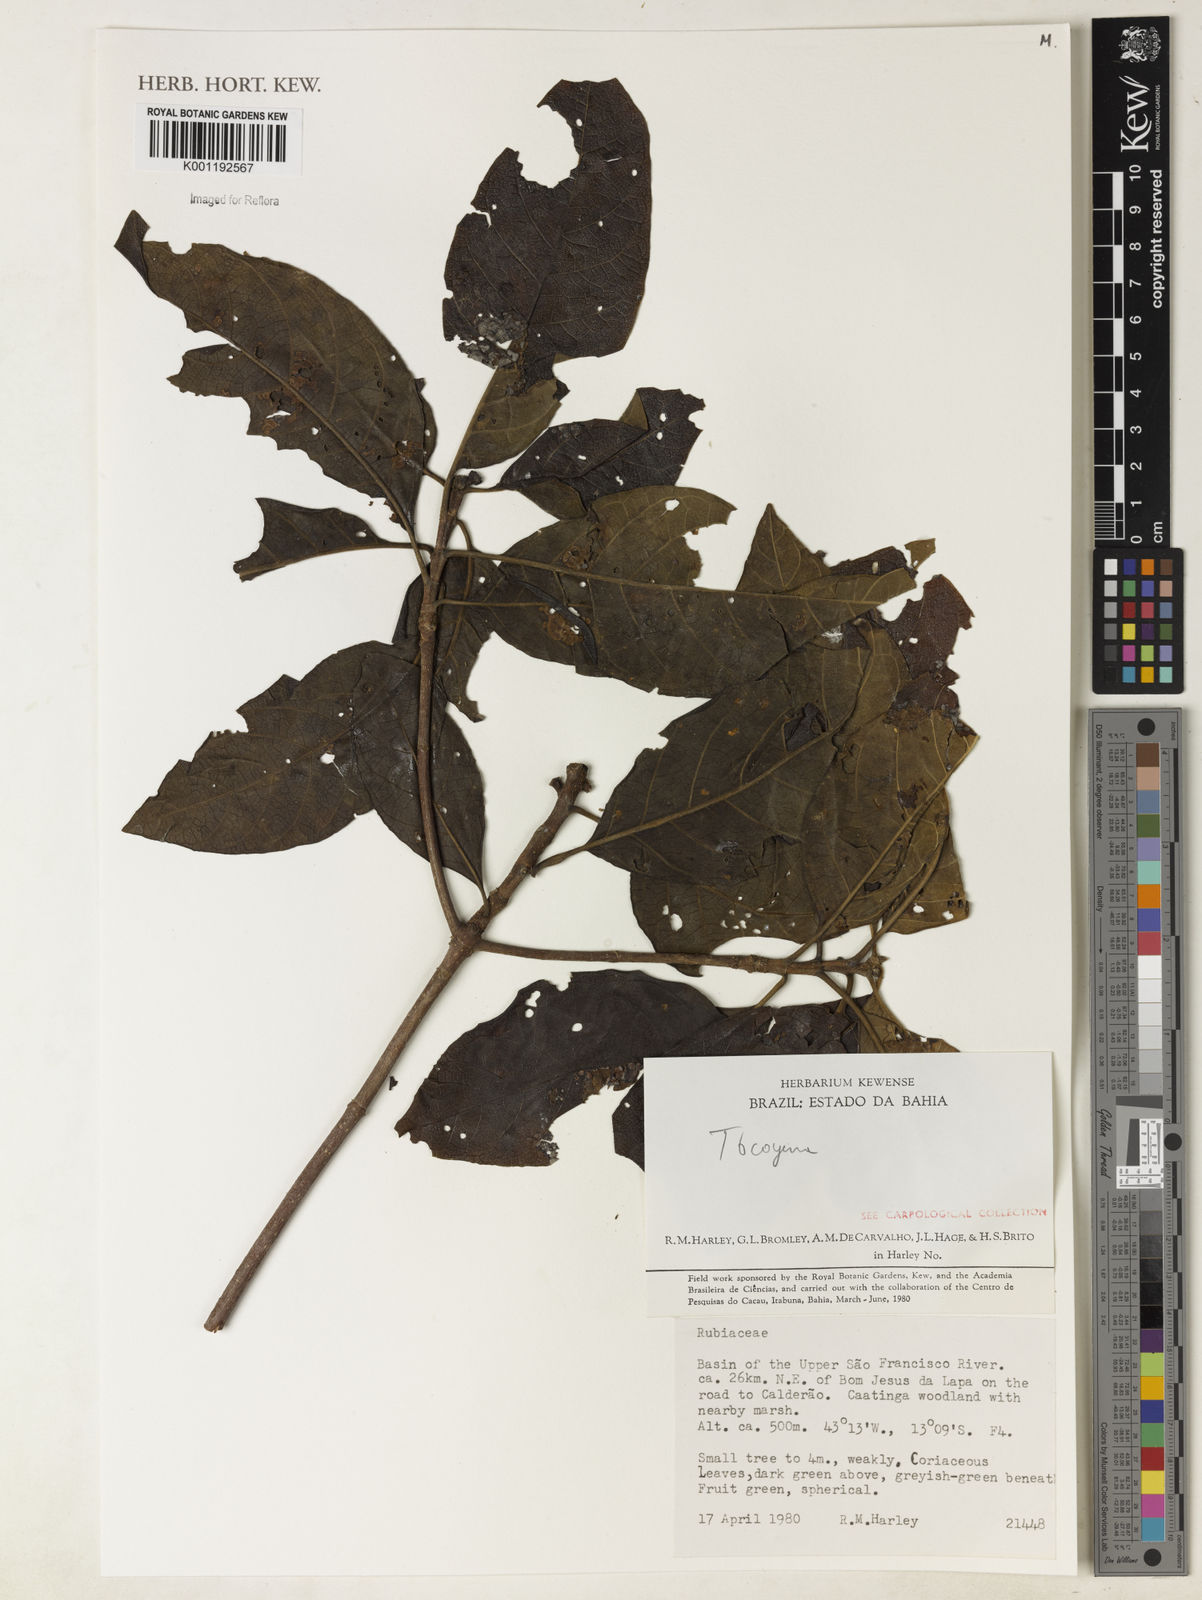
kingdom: Plantae
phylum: Tracheophyta
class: Magnoliopsida
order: Gentianales
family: Rubiaceae
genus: Tocoyena
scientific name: Tocoyena
